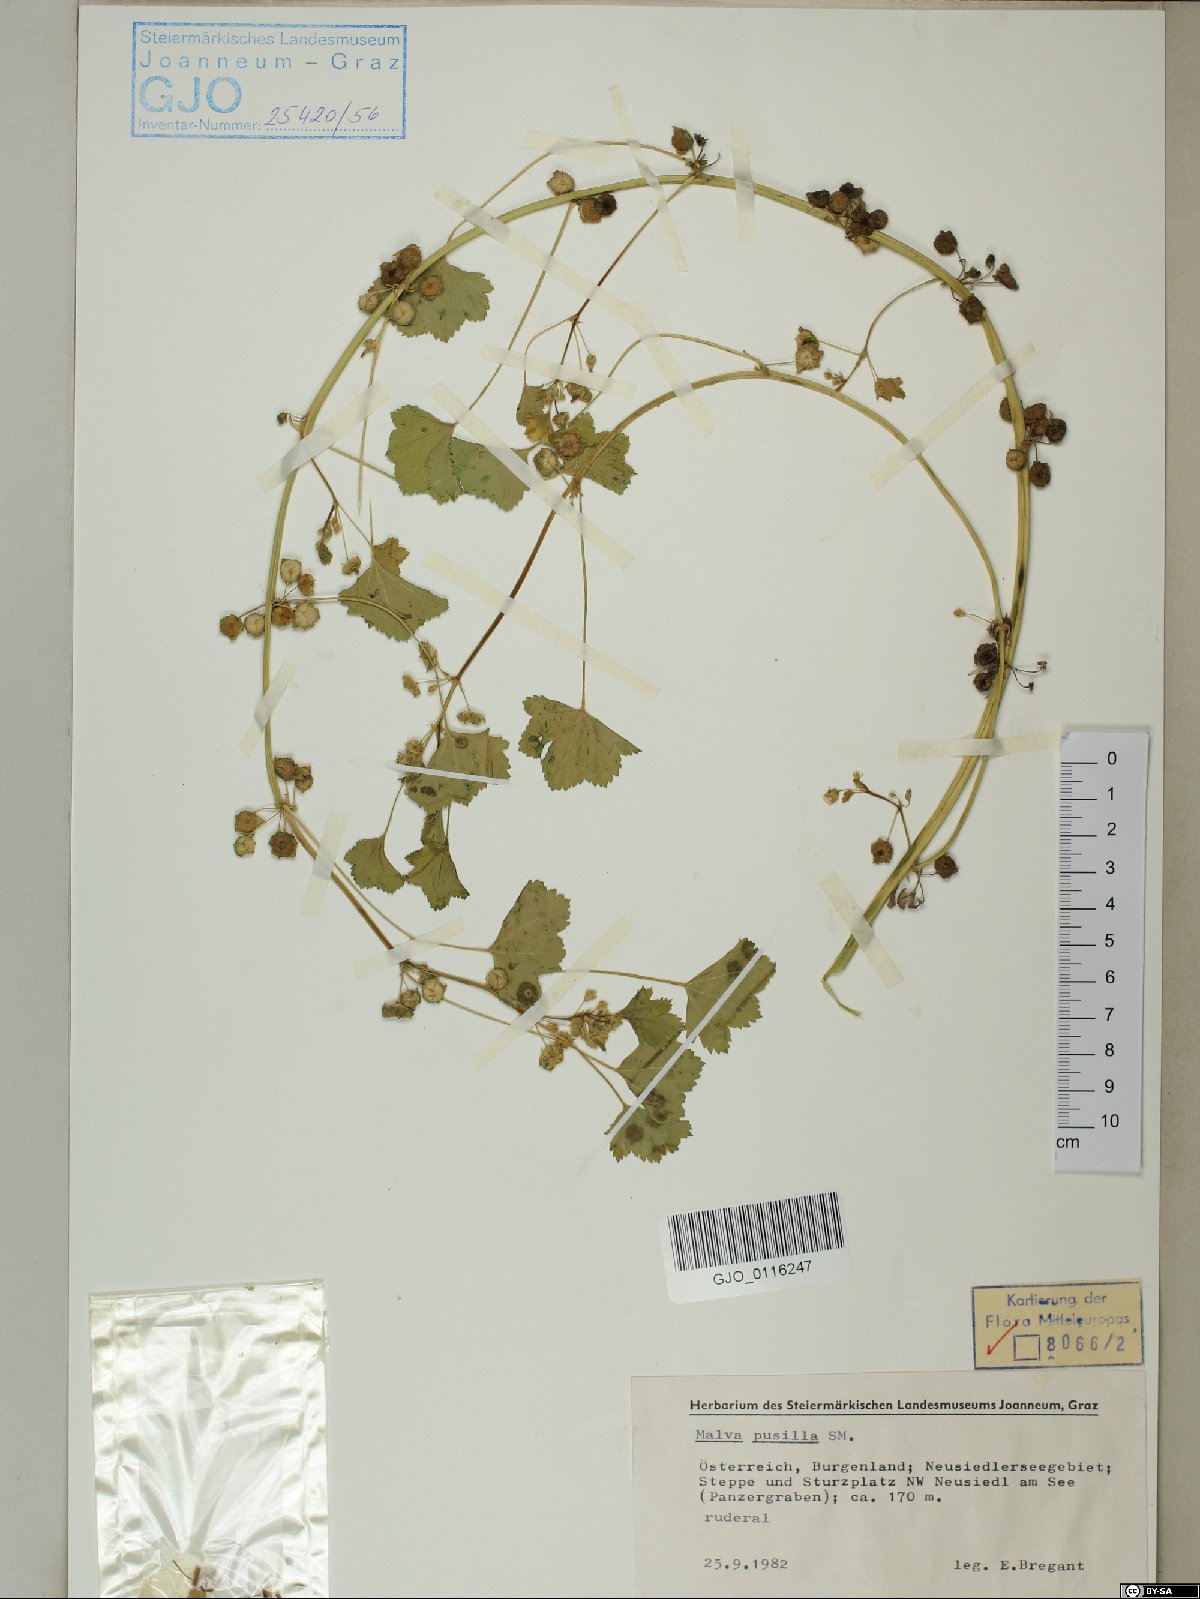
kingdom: Plantae
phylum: Tracheophyta
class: Magnoliopsida
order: Malvales
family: Malvaceae
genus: Malva
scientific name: Malva pusilla
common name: Small mallow
